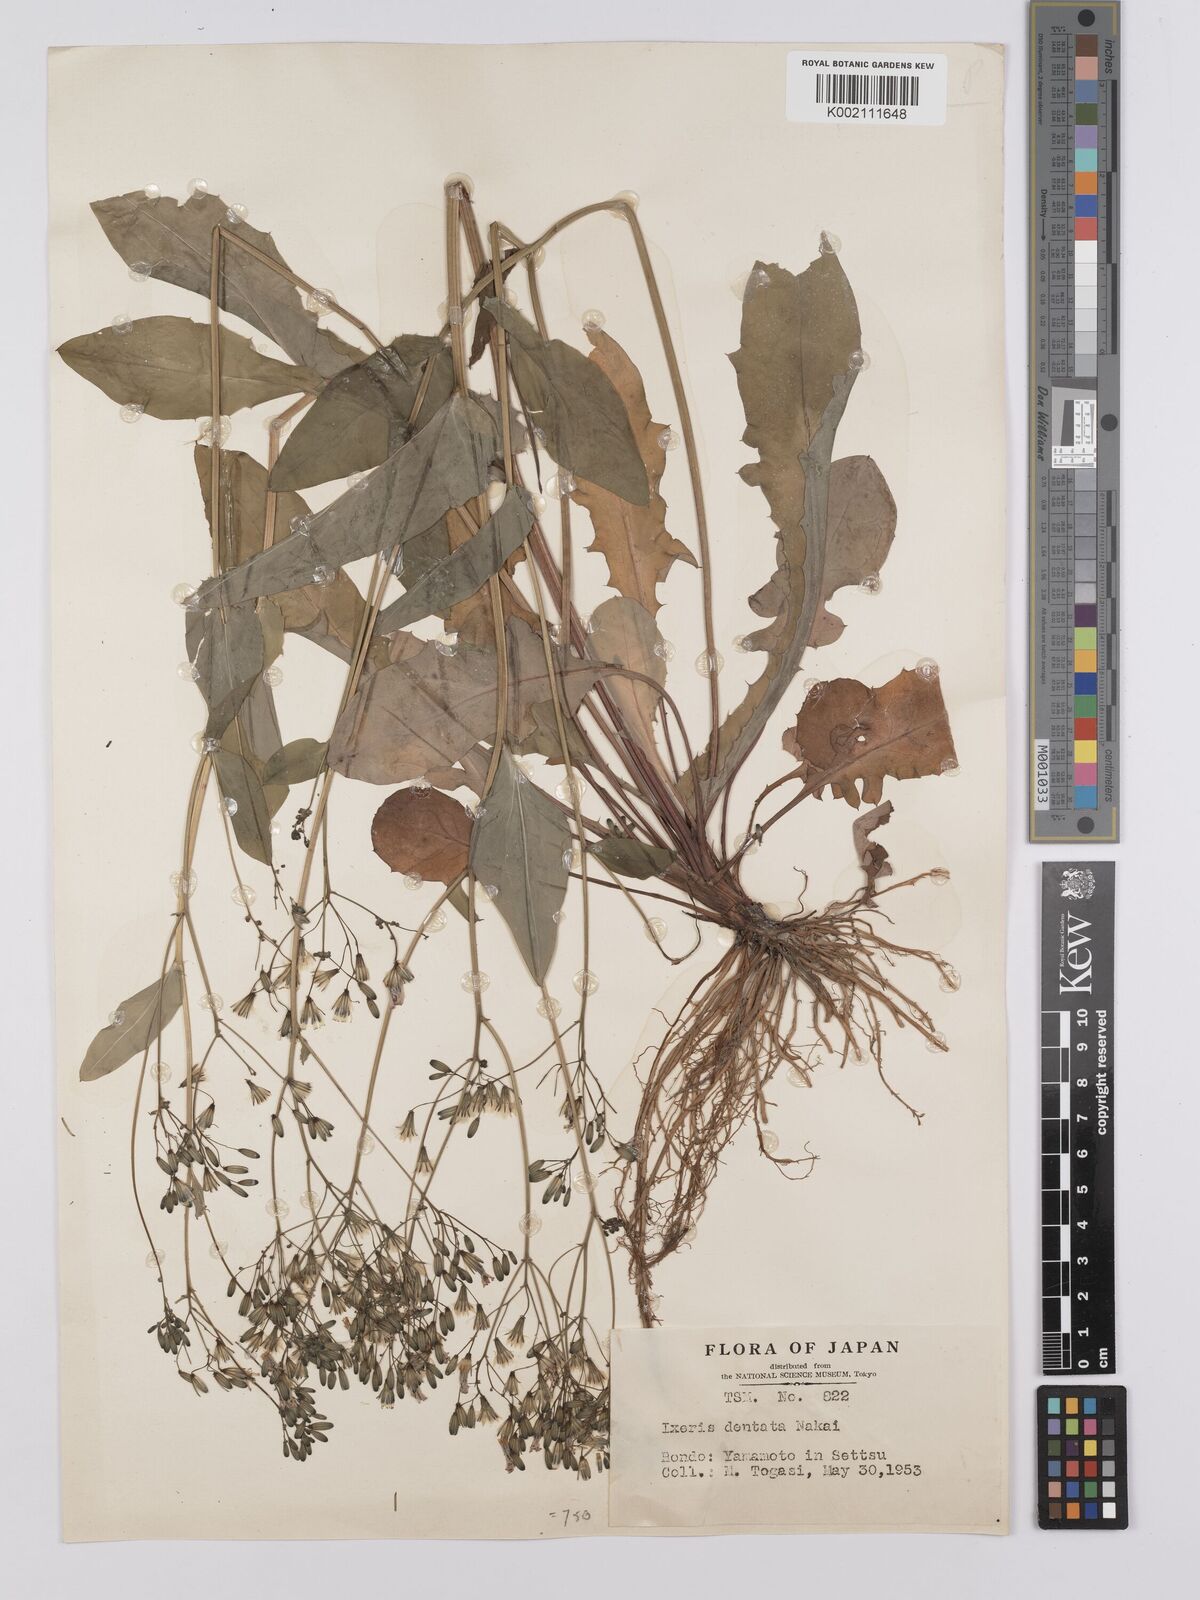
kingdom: Plantae
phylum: Tracheophyta
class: Magnoliopsida
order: Asterales
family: Asteraceae
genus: Ixeridium
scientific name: Ixeridium dentatum
